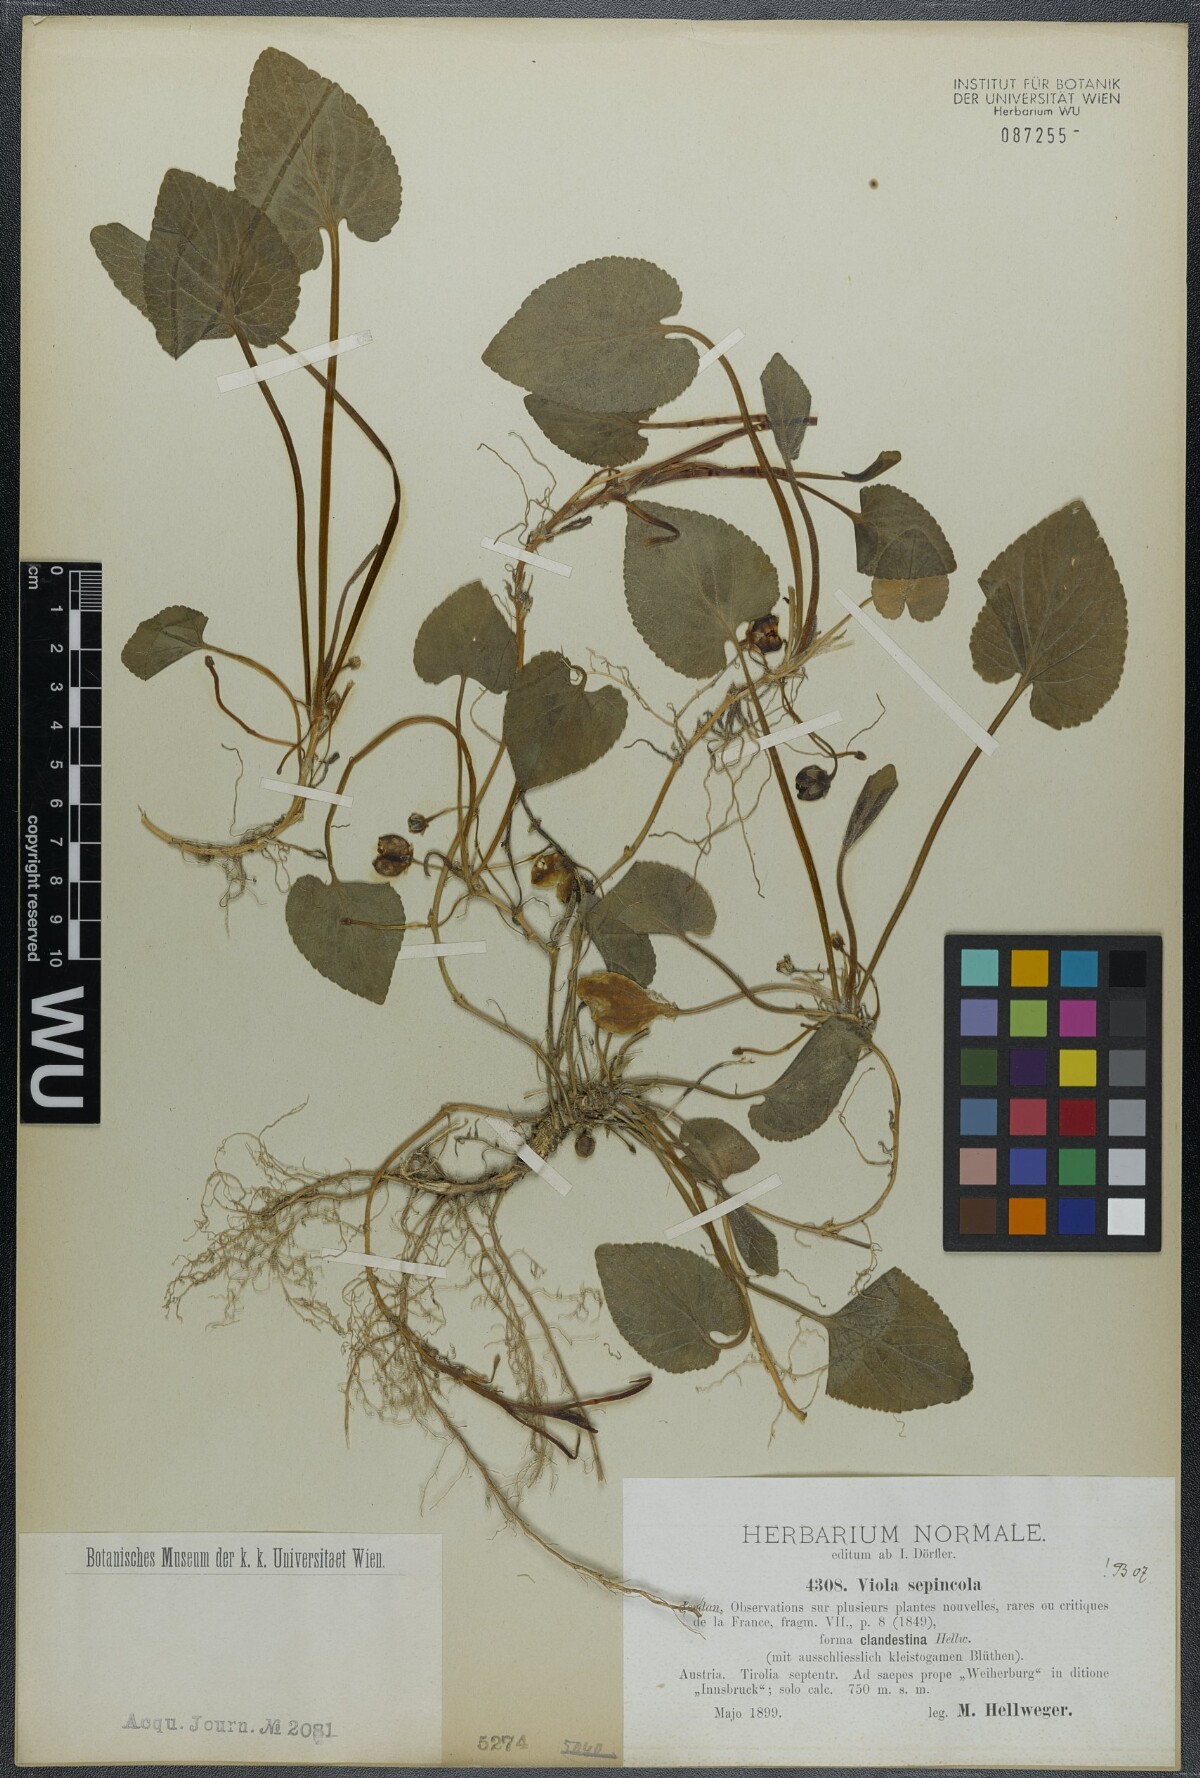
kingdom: Plantae
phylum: Tracheophyta
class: Magnoliopsida
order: Malpighiales
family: Violaceae
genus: Viola
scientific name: Viola suavis
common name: Russian violet
